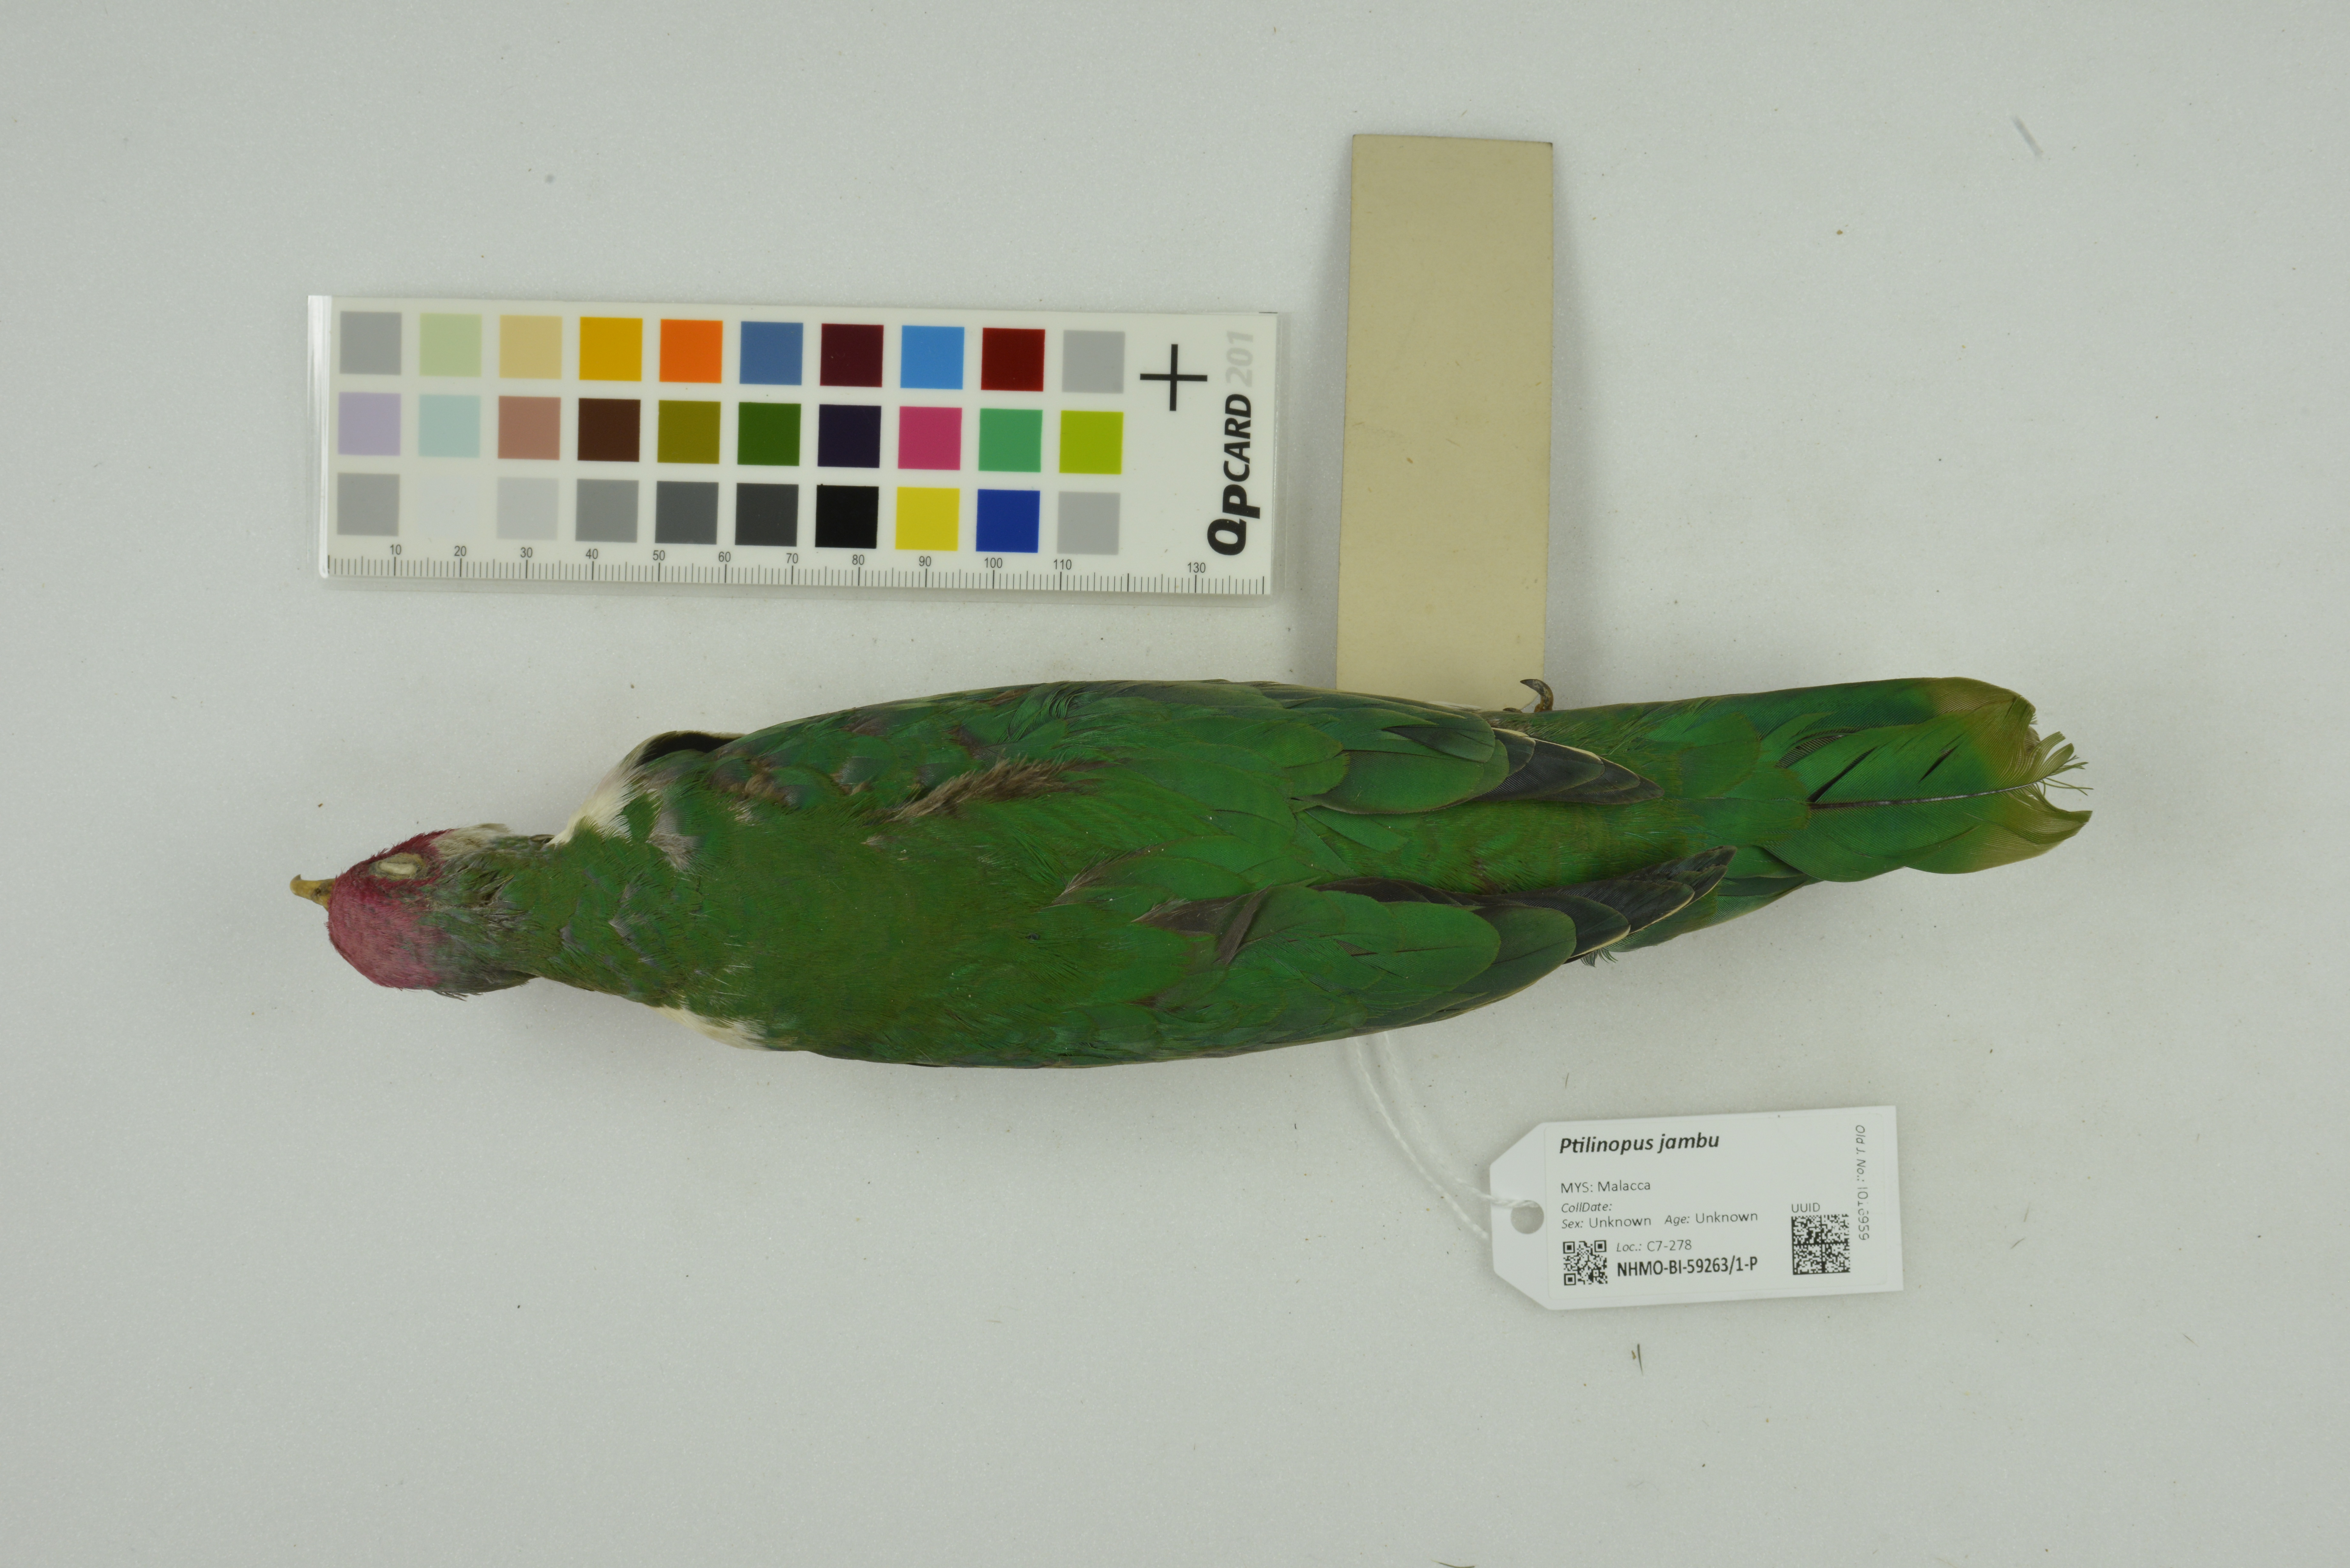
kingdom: Animalia
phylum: Chordata
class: Aves
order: Columbiformes
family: Columbidae
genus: Ptilinopus
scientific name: Ptilinopus jambu
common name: Jambu fruit dove
